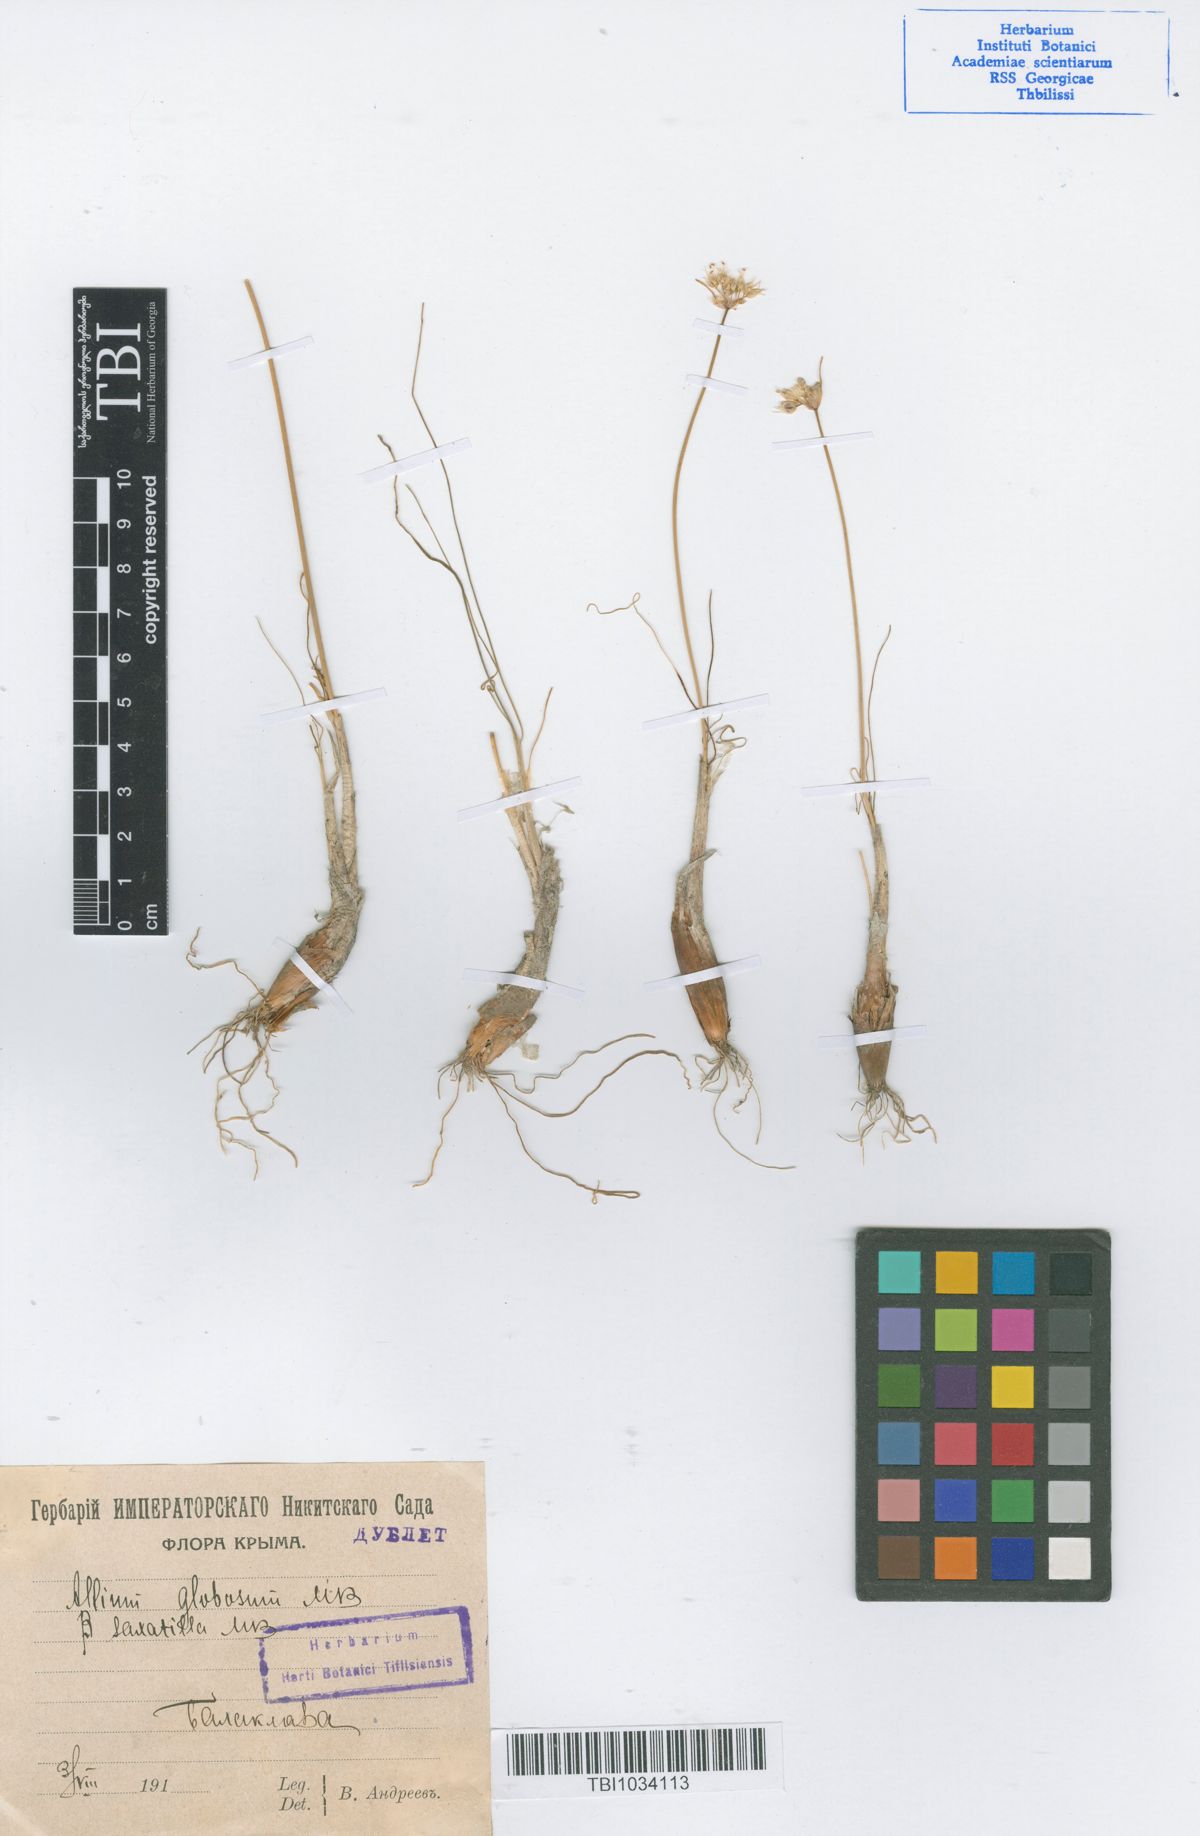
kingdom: Plantae
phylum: Tracheophyta
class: Liliopsida
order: Asparagales
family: Amaryllidaceae
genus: Allium
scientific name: Allium saxatile
